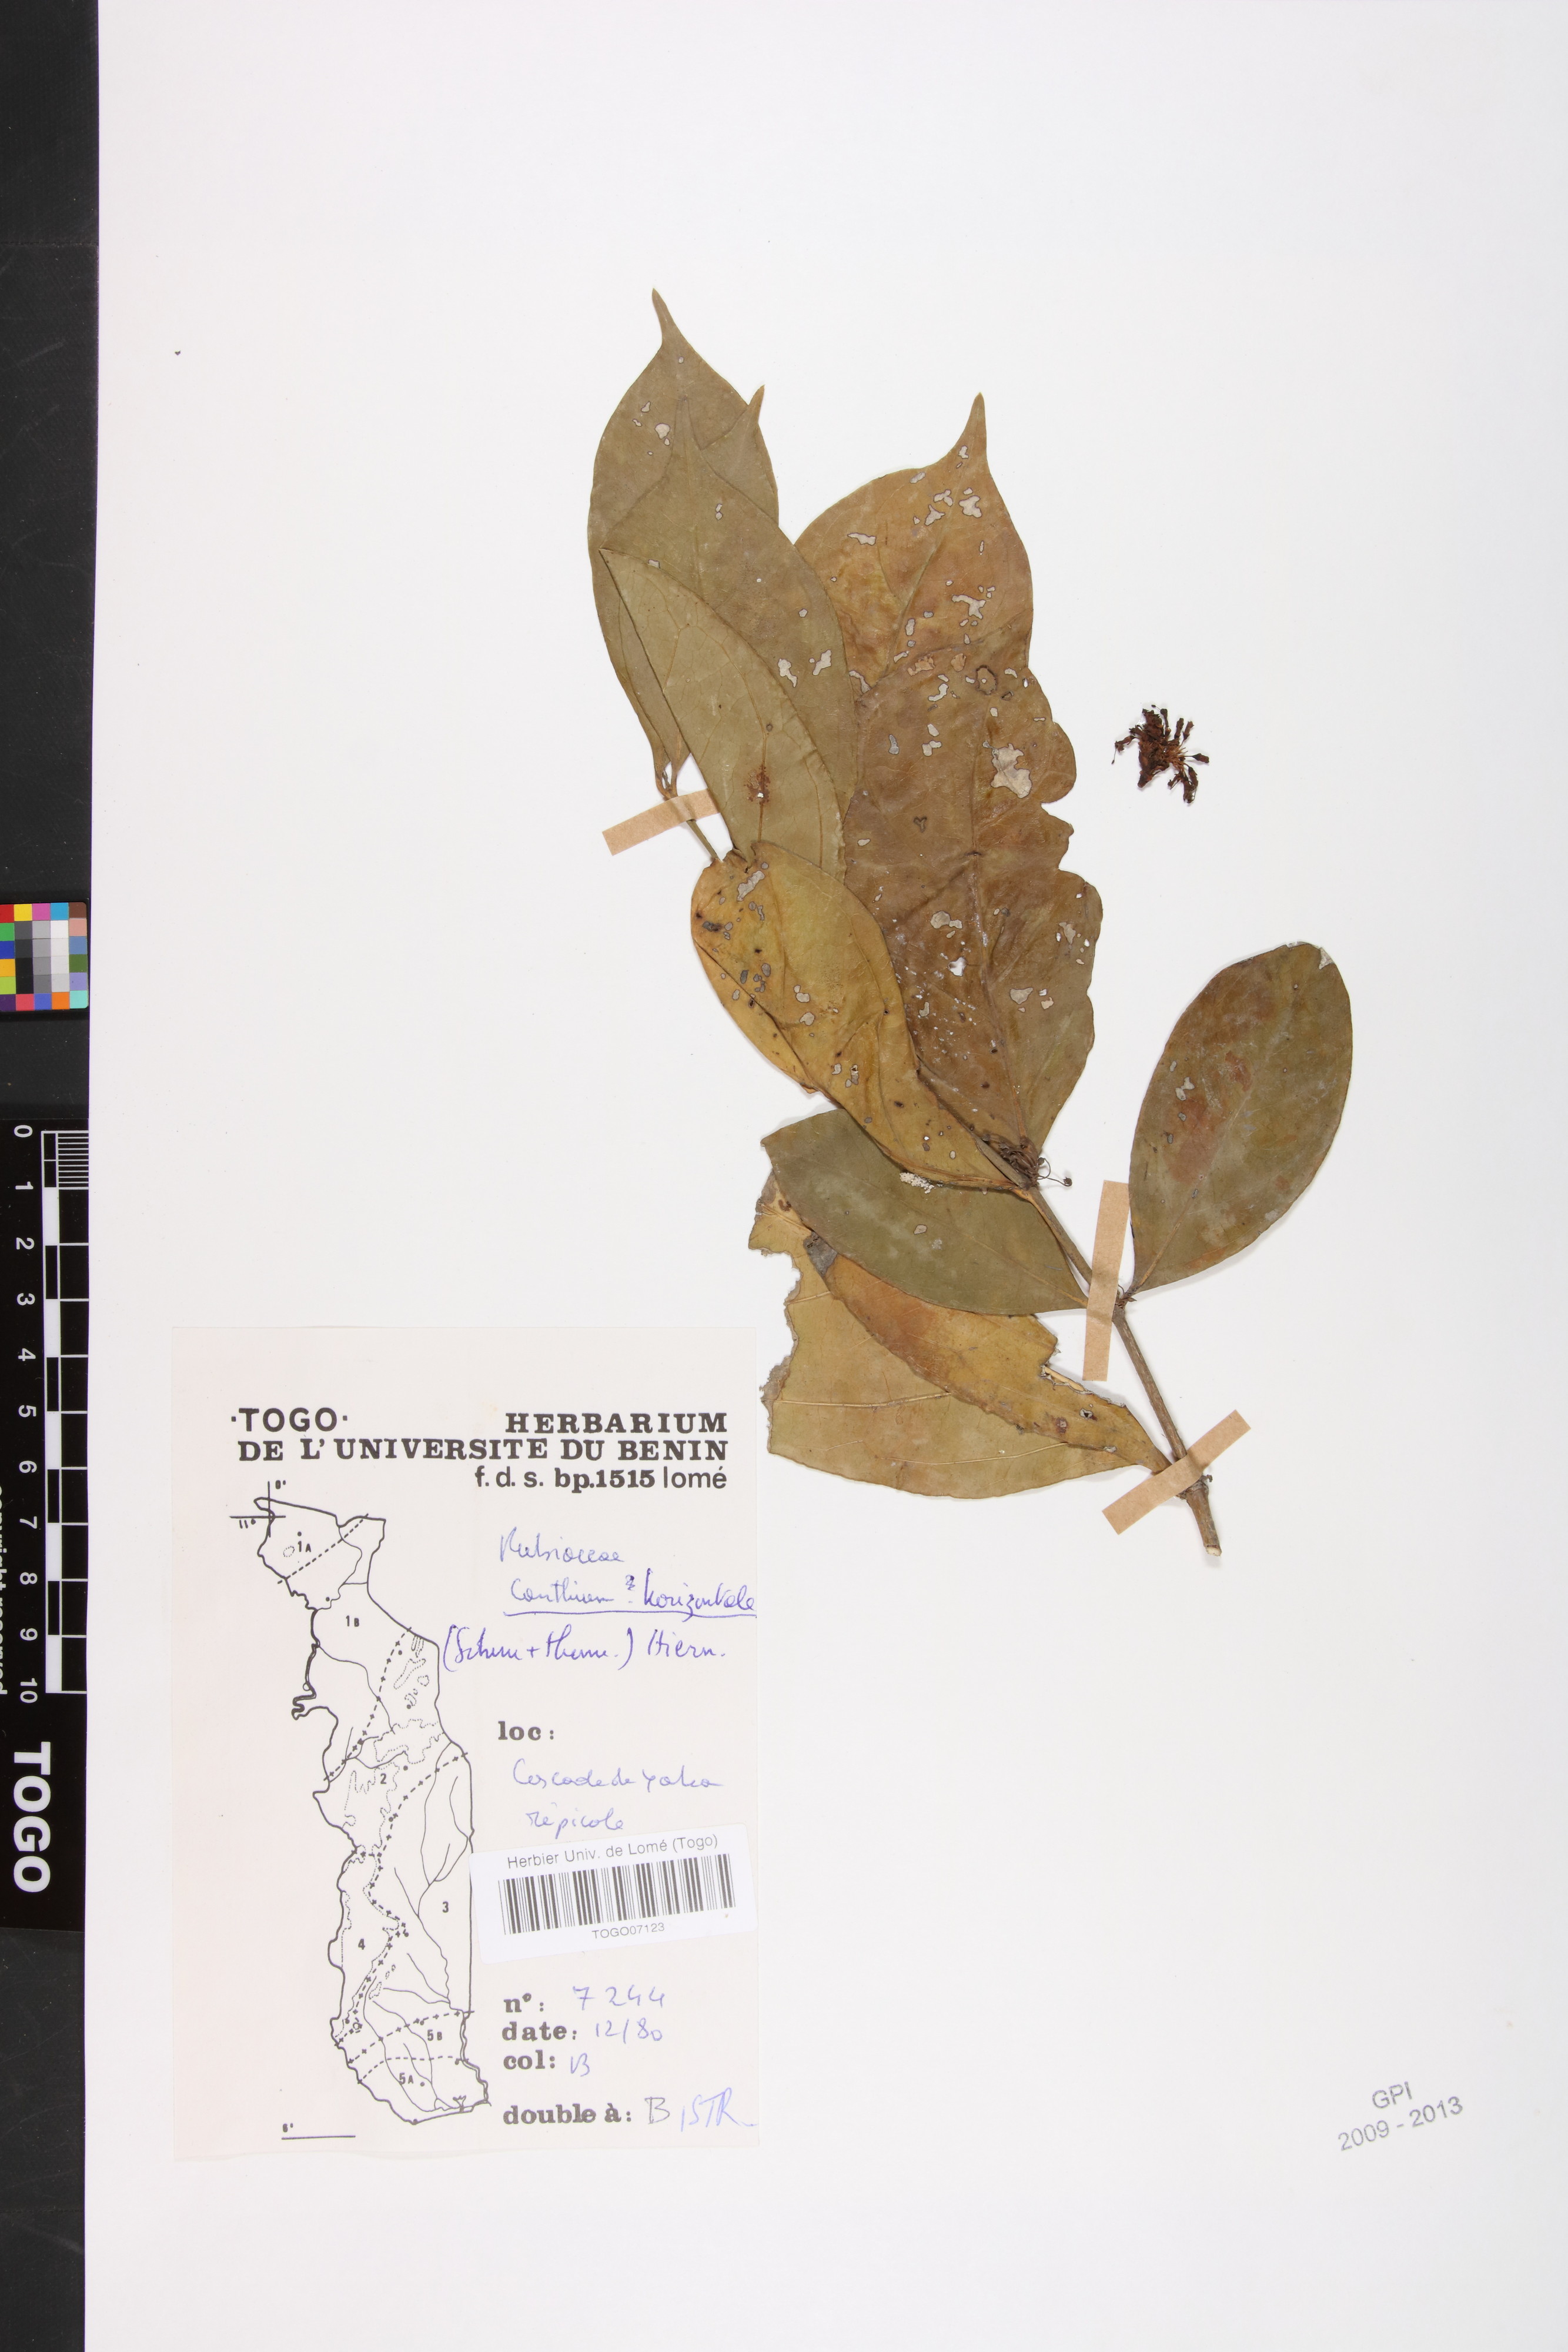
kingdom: Plantae
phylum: Tracheophyta
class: Magnoliopsida
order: Gentianales
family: Rubiaceae
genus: Psydrax
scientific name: Psydrax horizontalis
